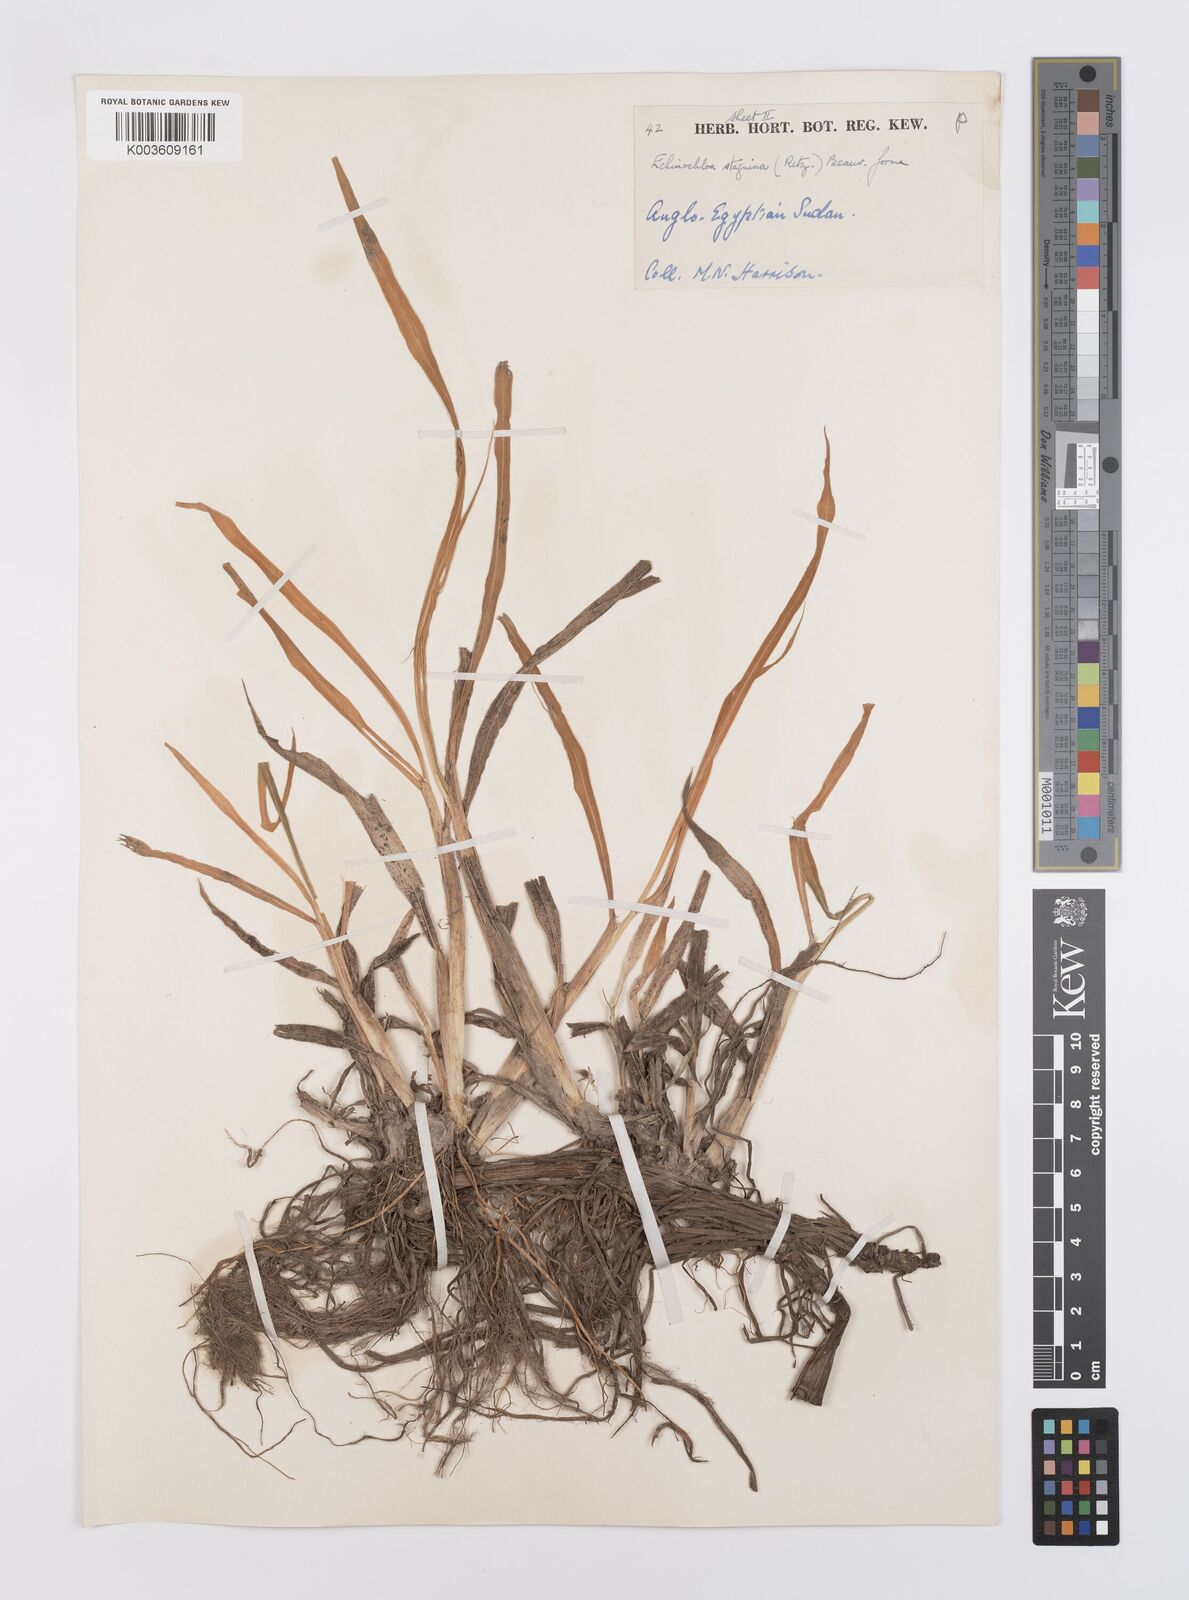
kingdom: Plantae
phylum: Tracheophyta
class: Liliopsida
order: Poales
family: Poaceae
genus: Echinochloa
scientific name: Echinochloa stagnina
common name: Burgu grass
